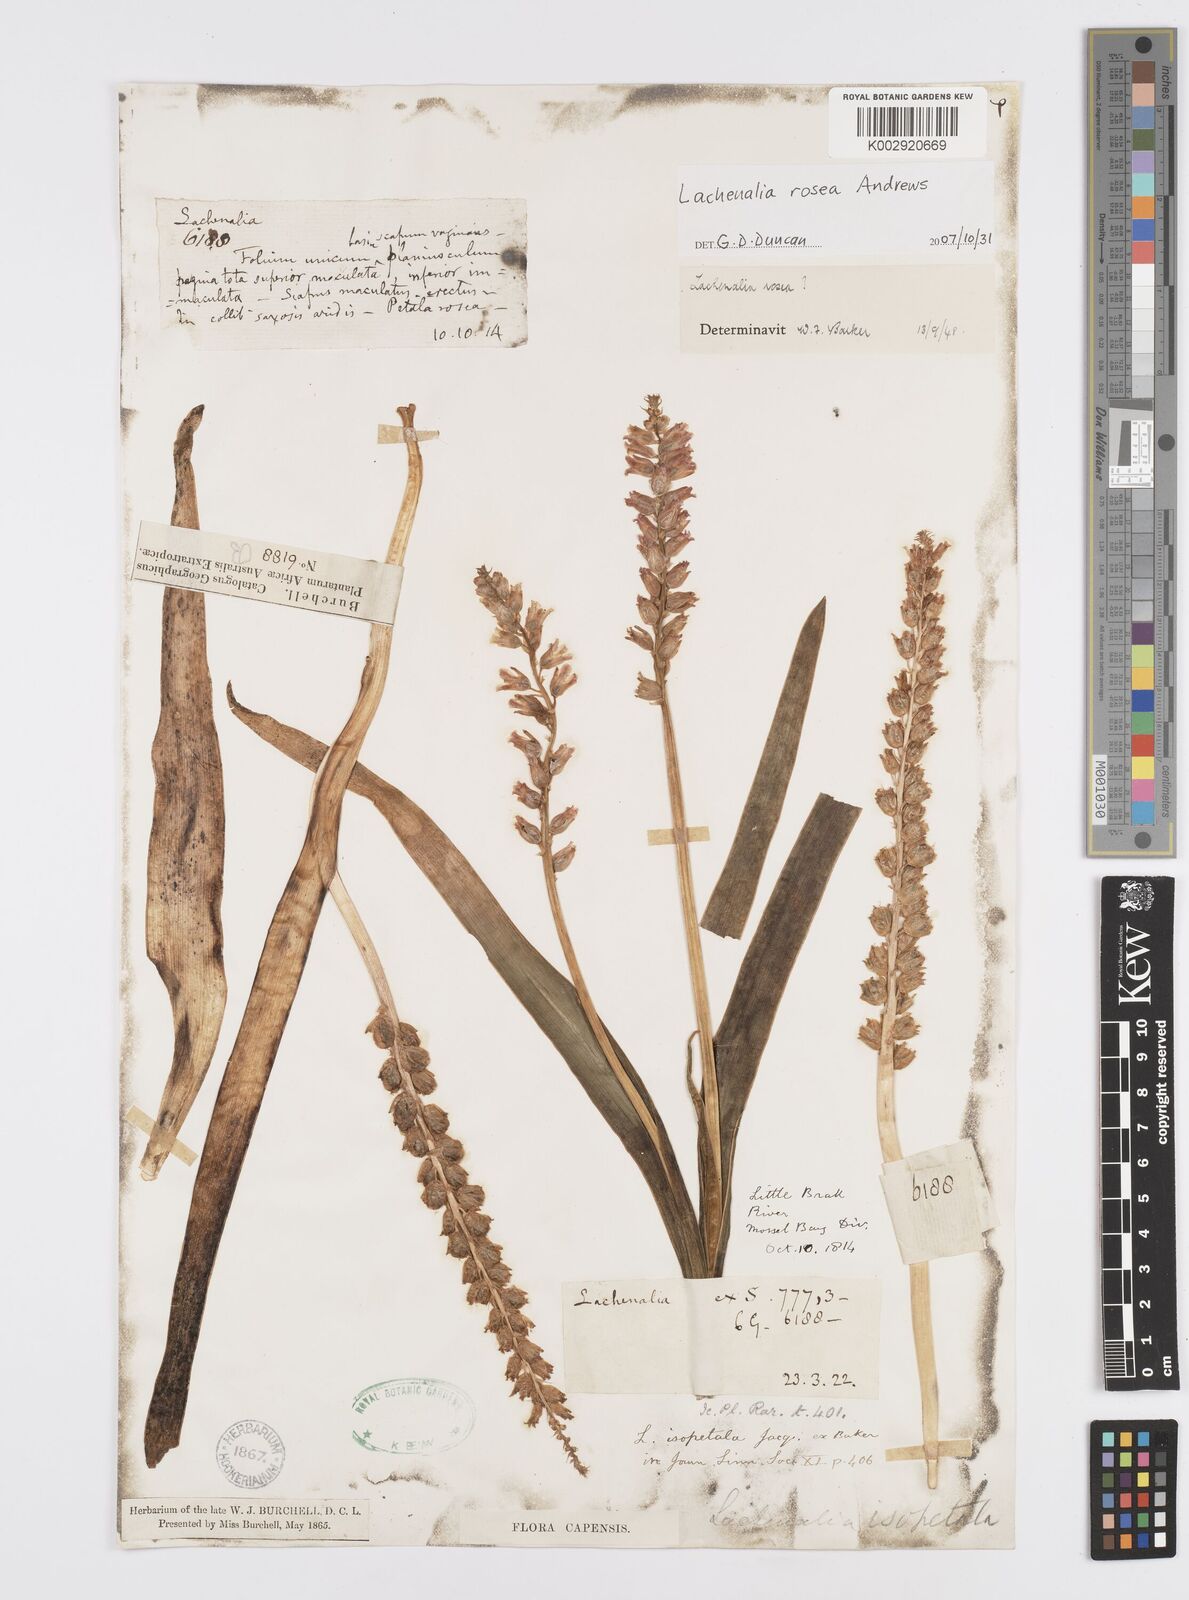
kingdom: Plantae
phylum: Tracheophyta
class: Liliopsida
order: Asparagales
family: Asparagaceae
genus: Lachenalia
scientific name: Lachenalia rosea
